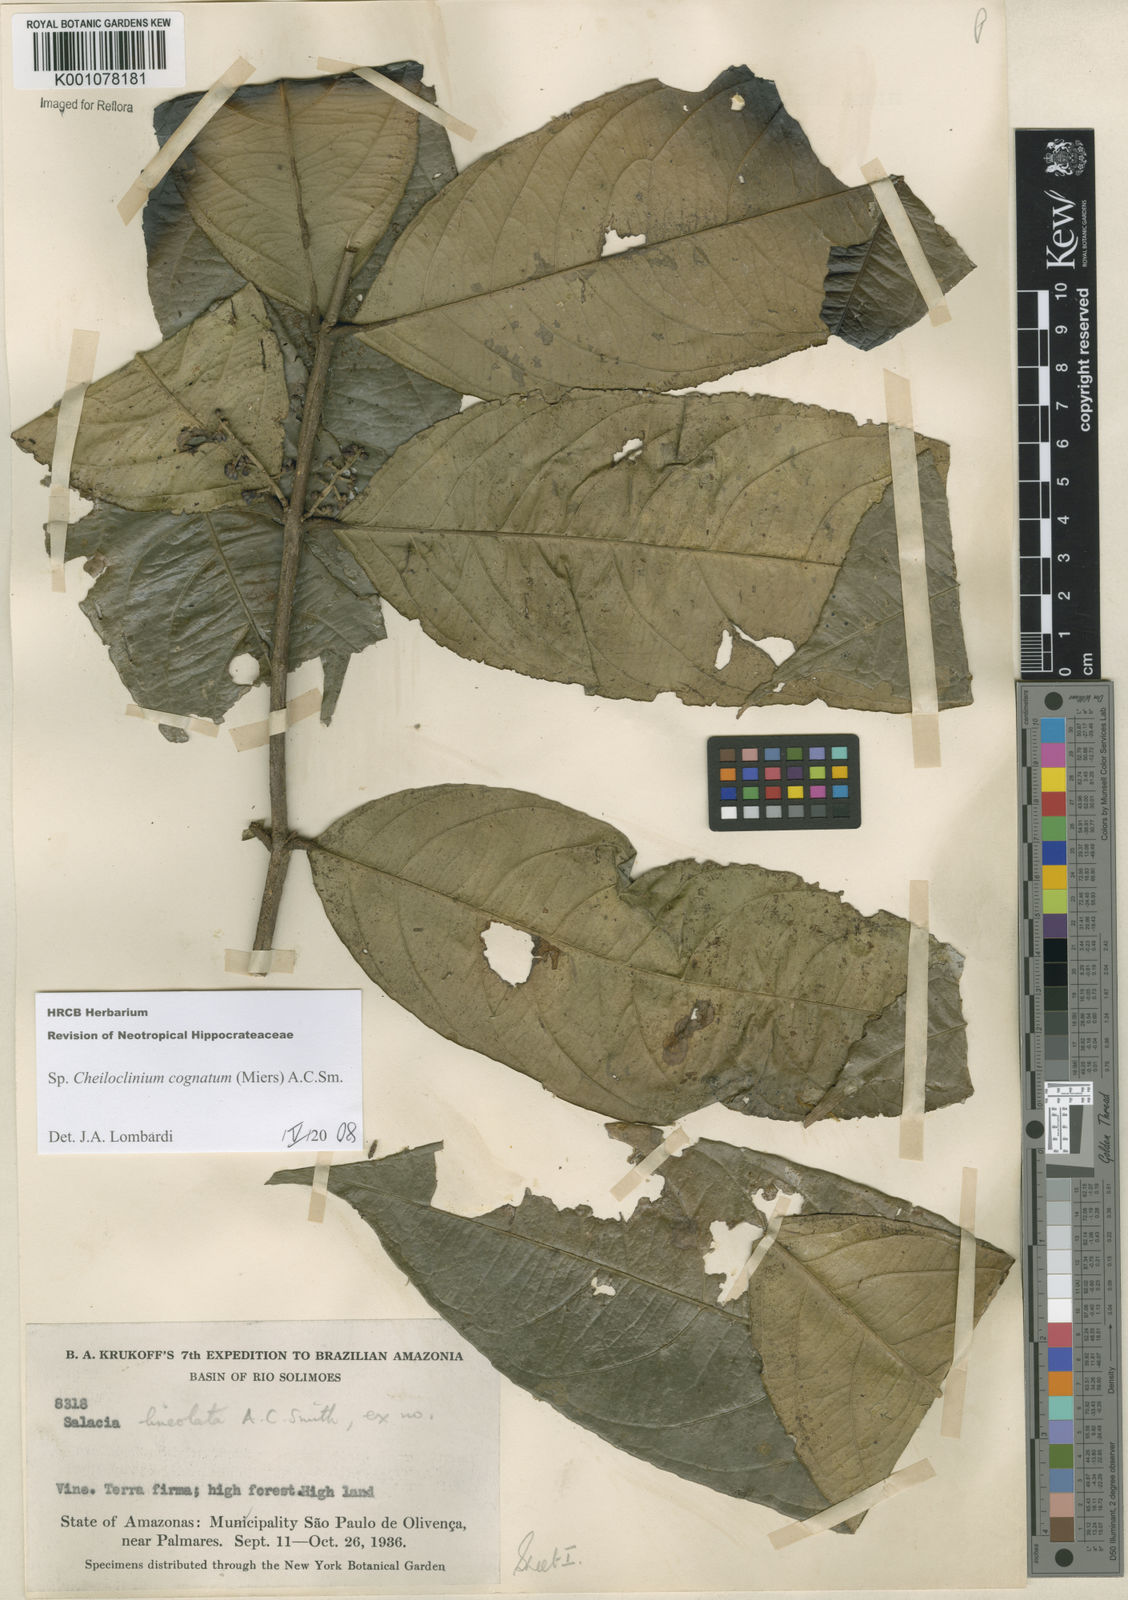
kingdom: Plantae
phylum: Tracheophyta
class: Magnoliopsida
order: Celastrales
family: Celastraceae
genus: Cheiloclinium
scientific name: Cheiloclinium cognatum
